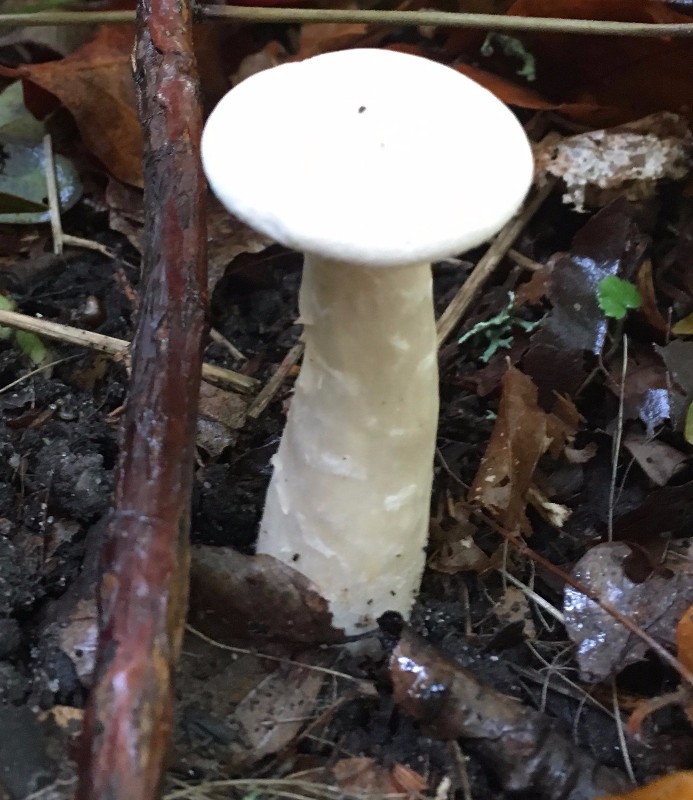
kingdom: Fungi
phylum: Basidiomycota
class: Agaricomycetes
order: Agaricales
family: Tricholomataceae
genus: Infundibulicybe
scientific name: Infundibulicybe geotropa
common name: stor tragthat
